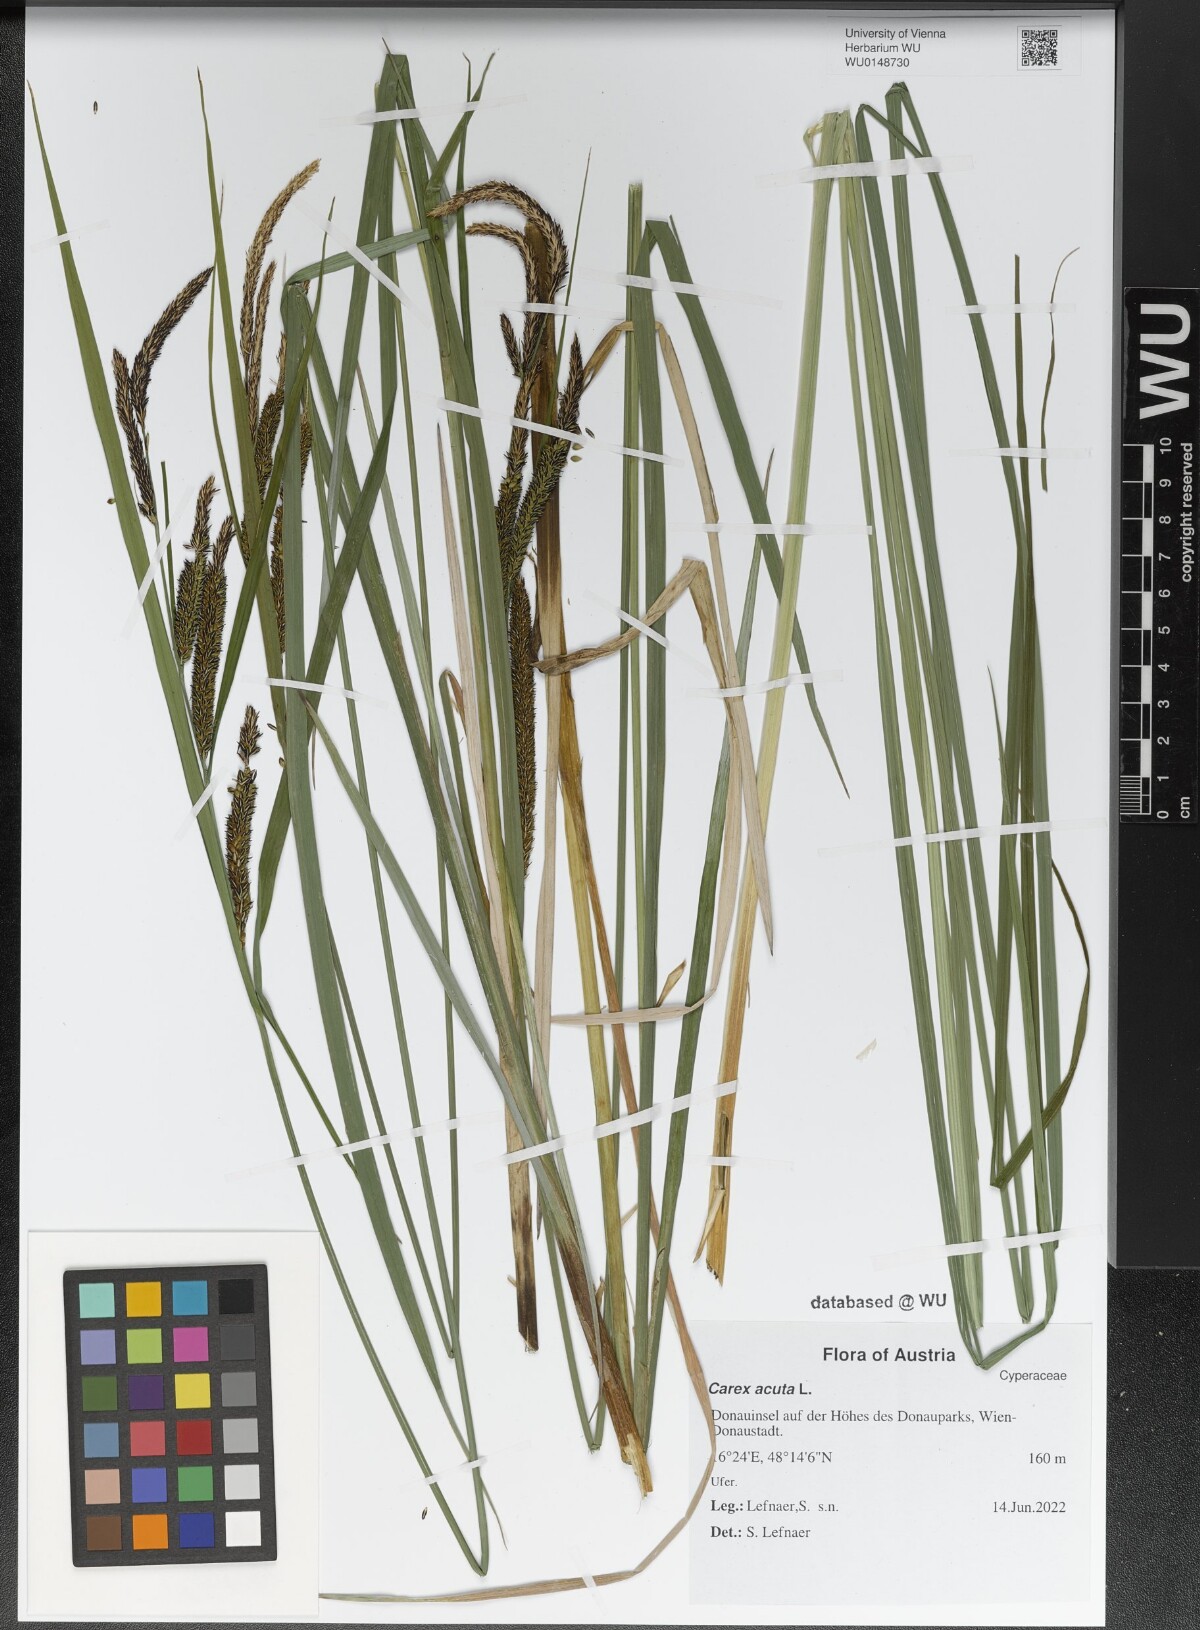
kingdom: Plantae
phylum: Tracheophyta
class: Liliopsida
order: Poales
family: Cyperaceae
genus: Carex
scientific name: Carex acuta
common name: Slender tufted-sedge
